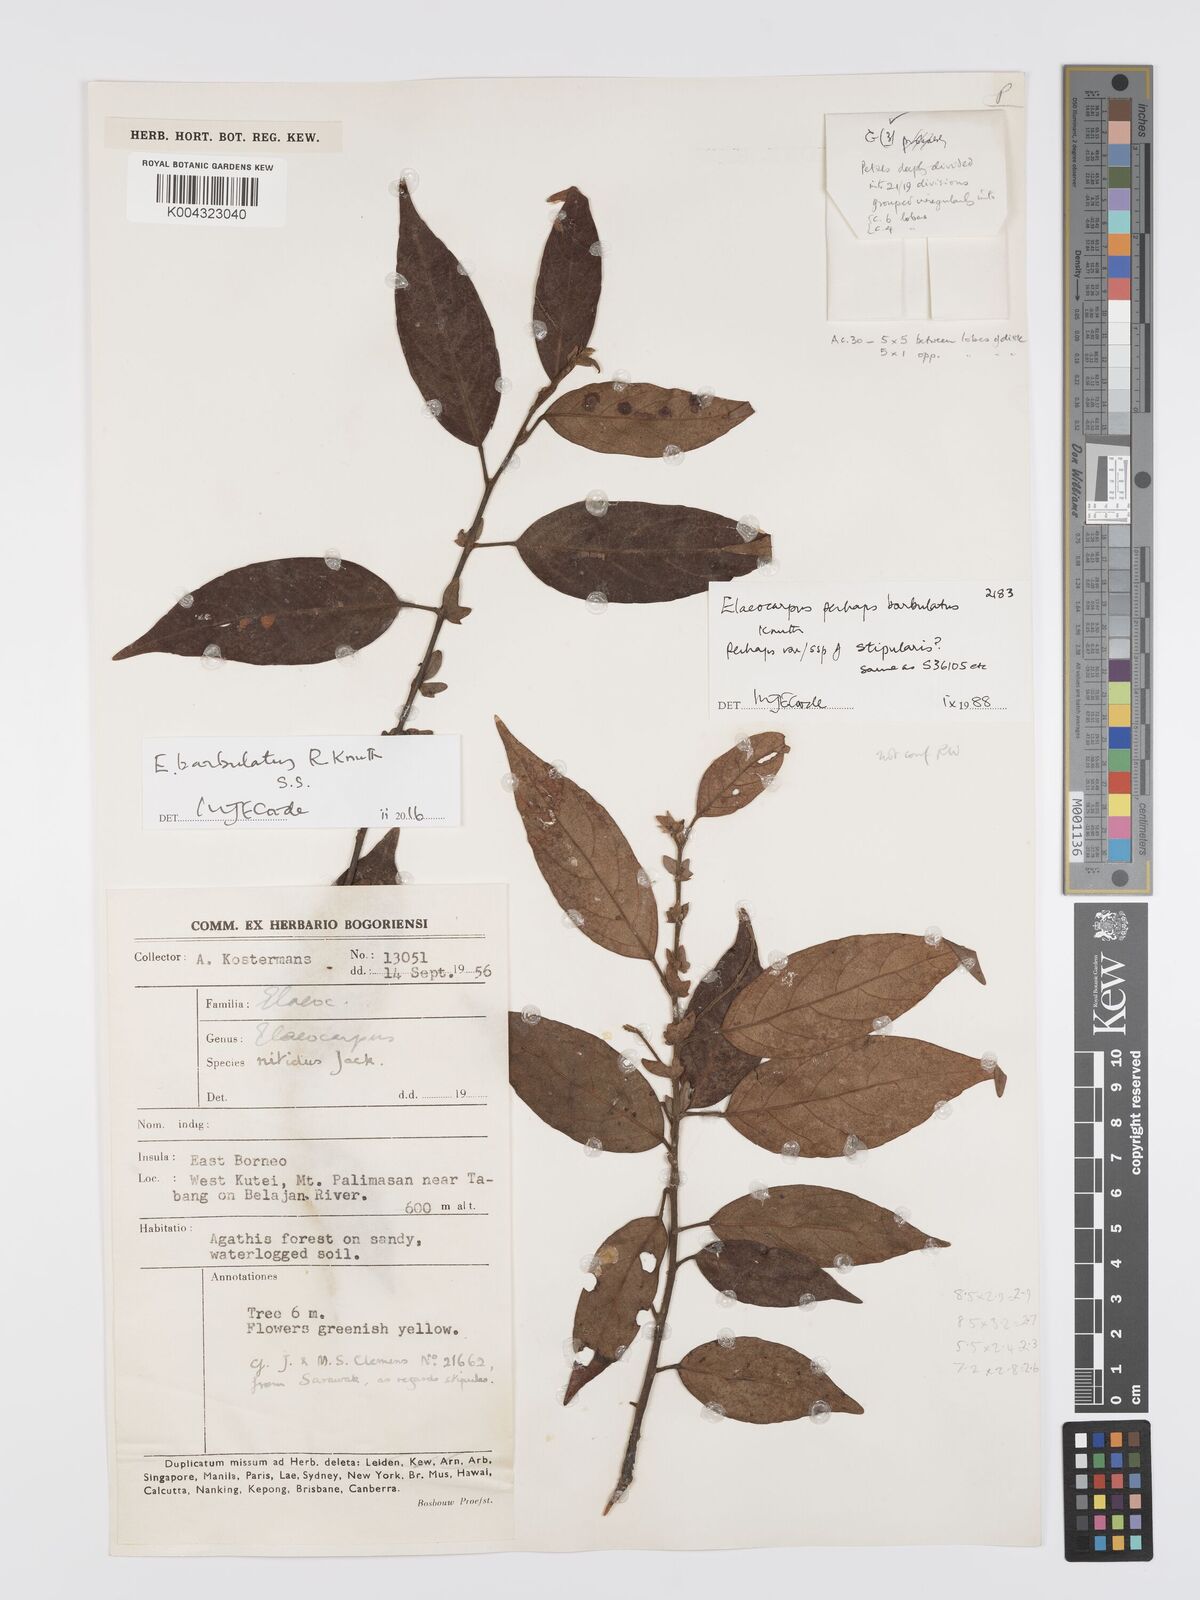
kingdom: Plantae
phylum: Tracheophyta
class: Magnoliopsida
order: Oxalidales
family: Elaeocarpaceae
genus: Elaeocarpus
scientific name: Elaeocarpus barbulatus
